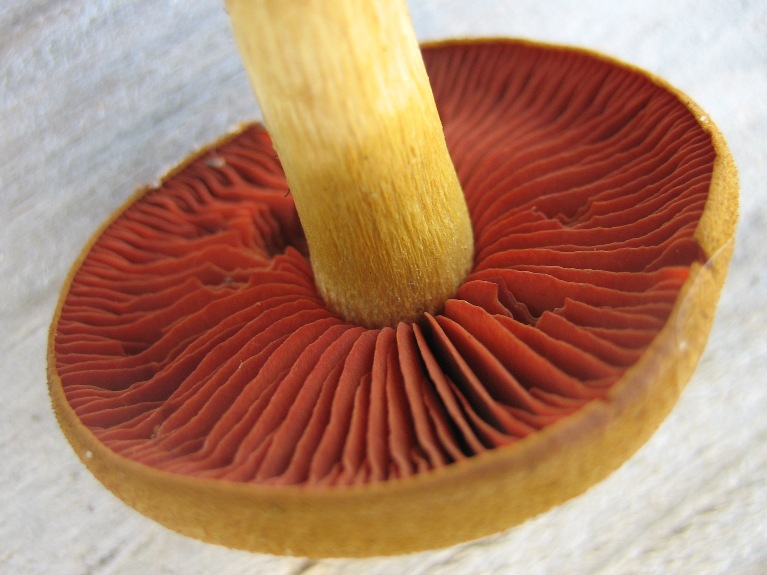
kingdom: Fungi
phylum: Basidiomycota
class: Agaricomycetes
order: Agaricales
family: Cortinariaceae
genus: Cortinarius
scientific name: Cortinarius
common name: cinnoberbladet slørhat
